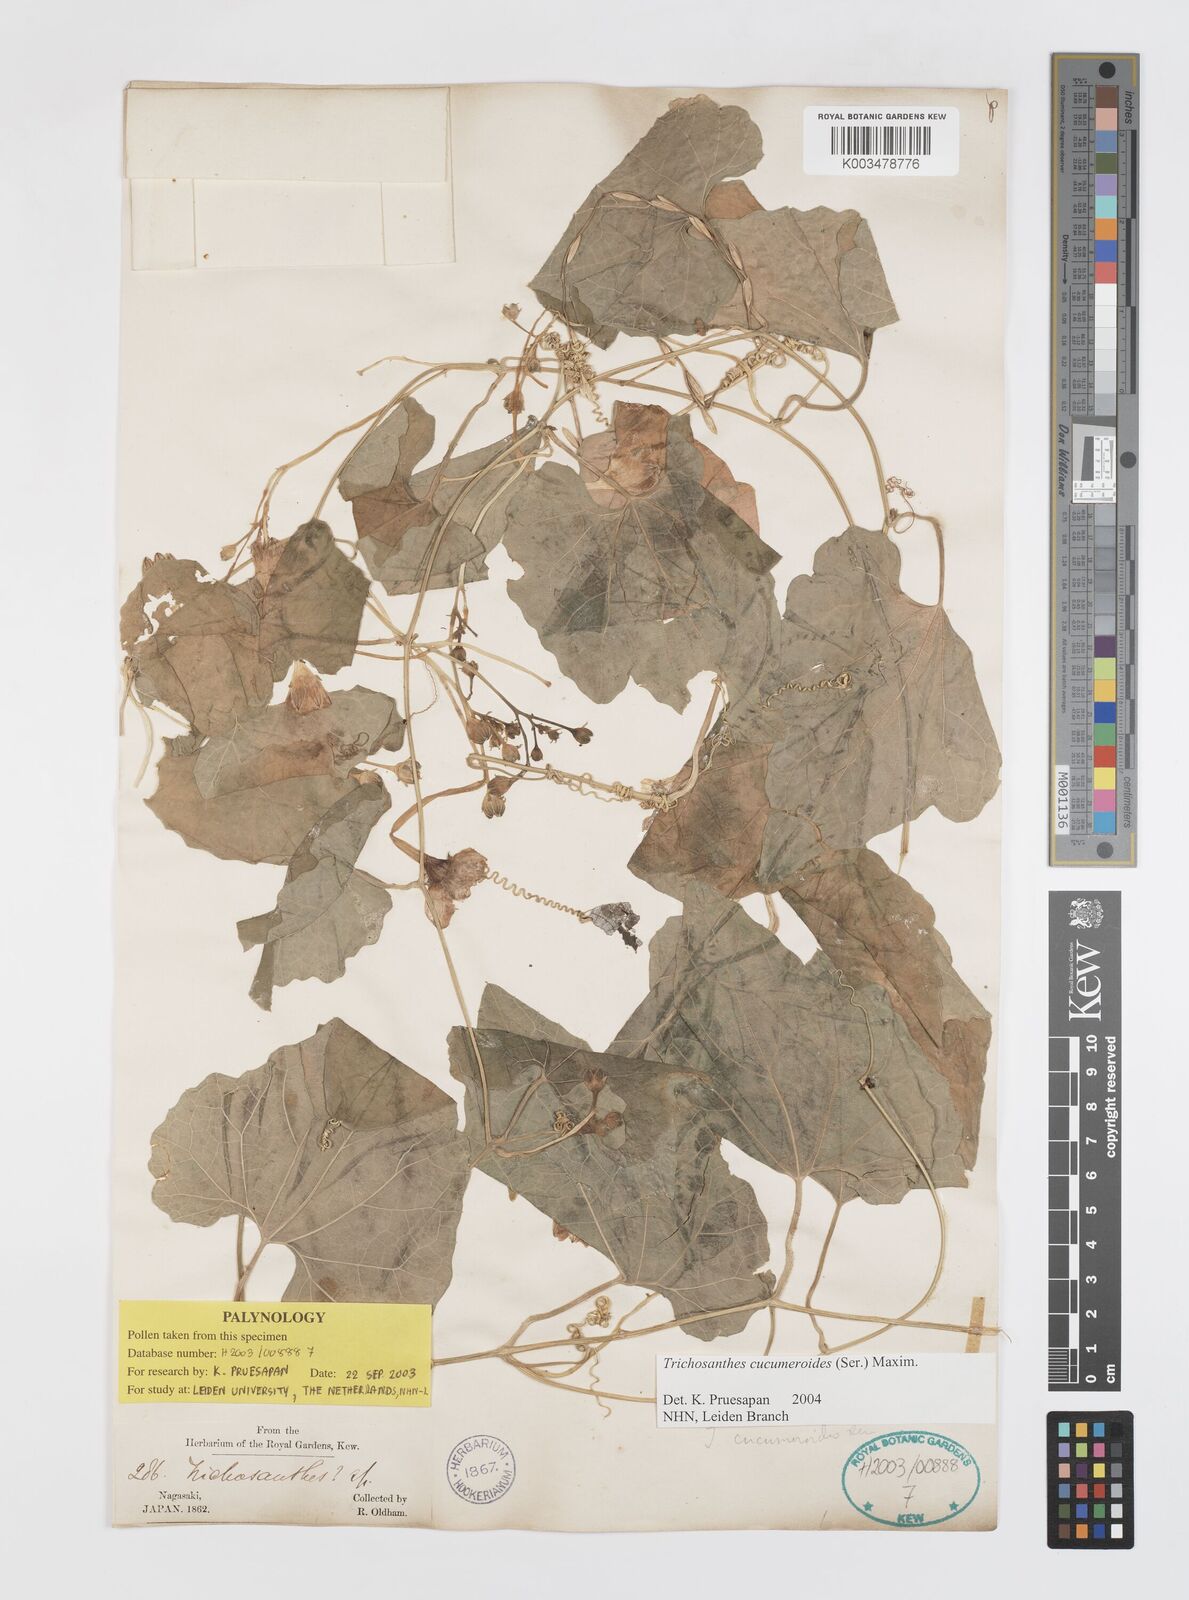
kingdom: Plantae
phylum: Tracheophyta
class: Magnoliopsida
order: Cucurbitales
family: Cucurbitaceae
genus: Trichosanthes
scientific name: Trichosanthes cucumeroides
